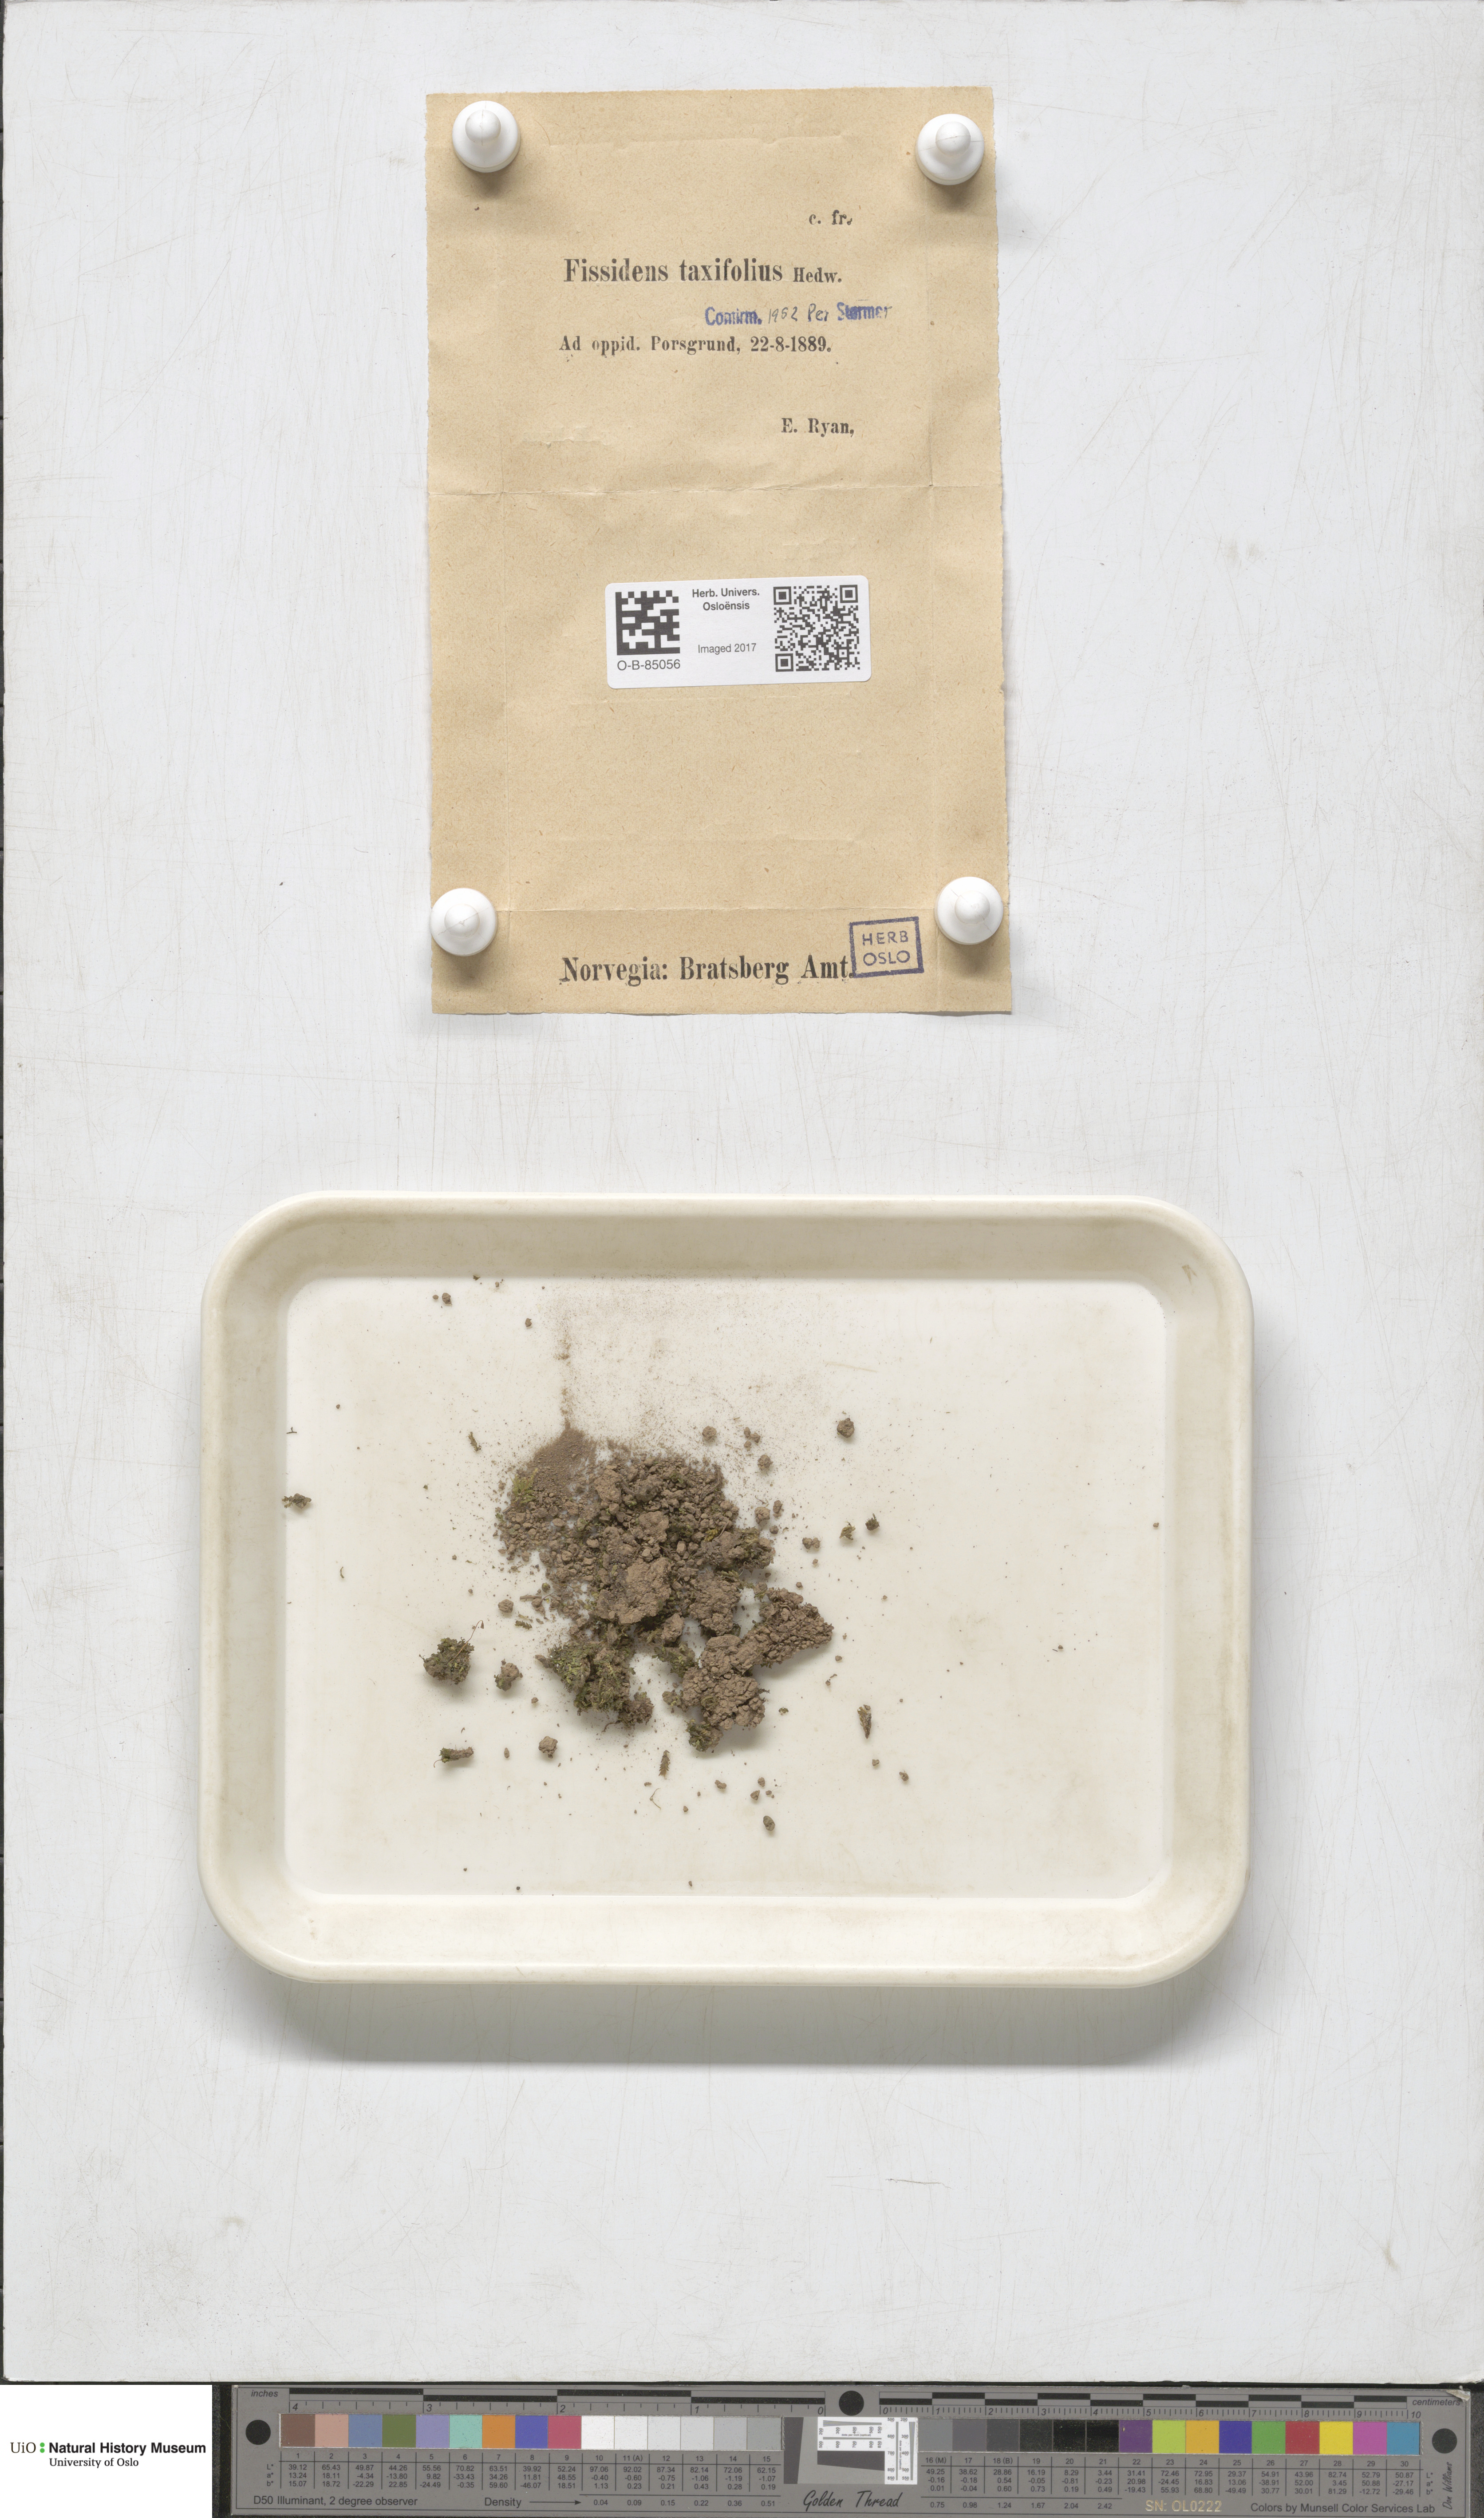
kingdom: Plantae
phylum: Bryophyta
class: Bryopsida
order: Dicranales
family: Fissidentaceae
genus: Fissidens
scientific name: Fissidens taxifolius
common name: Yew-leaved pocket moss
